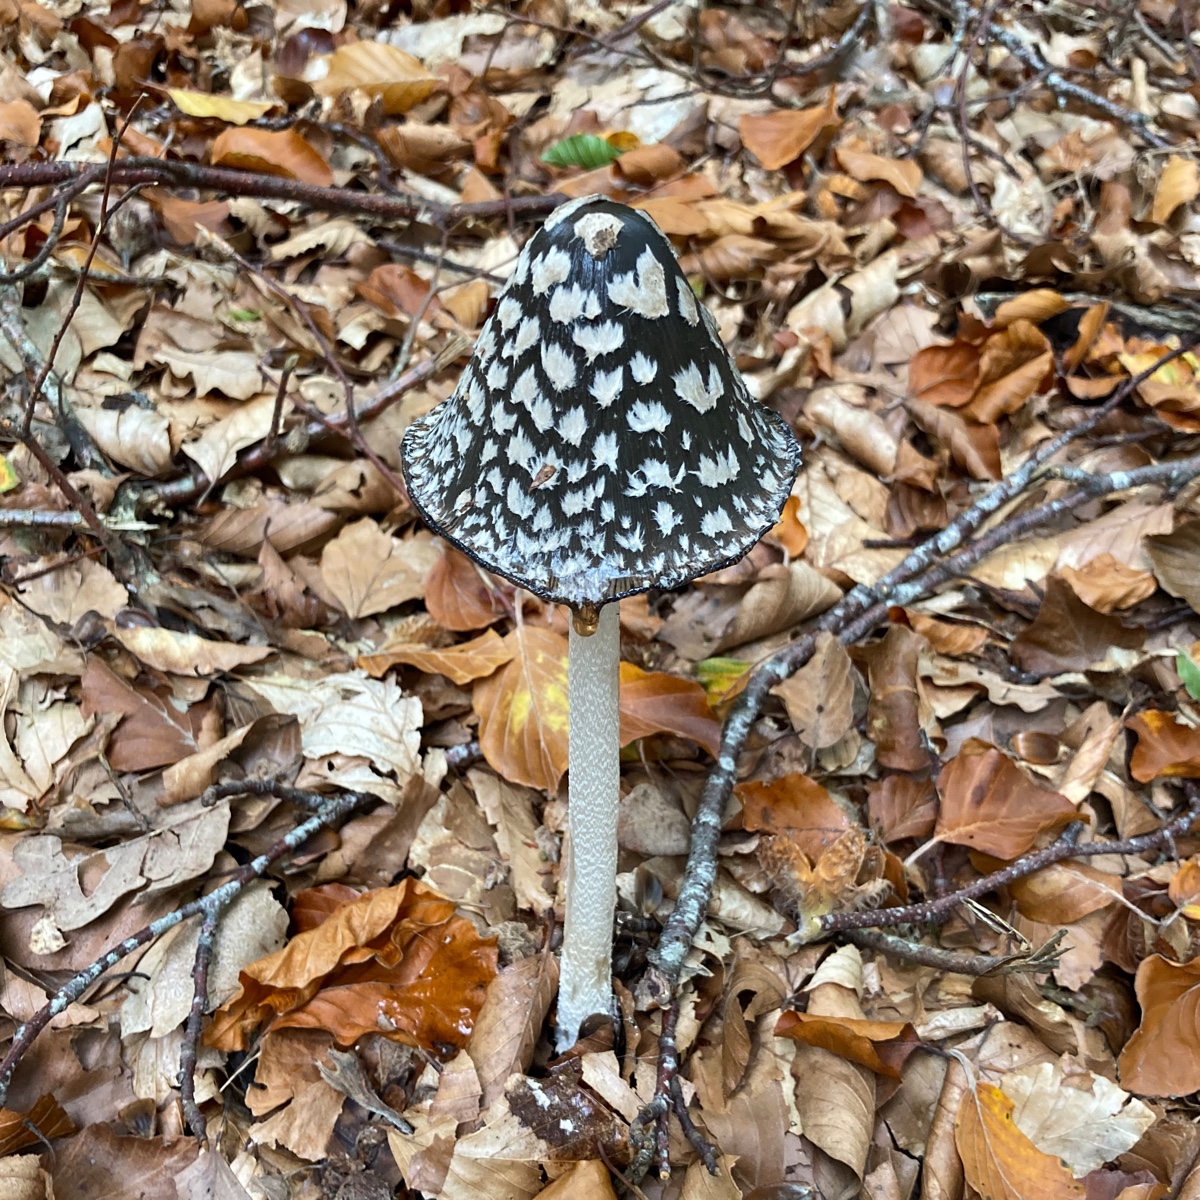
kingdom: Fungi
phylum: Basidiomycota
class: Agaricomycetes
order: Agaricales
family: Psathyrellaceae
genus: Coprinopsis
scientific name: Coprinopsis picacea
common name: skade-blækhat
